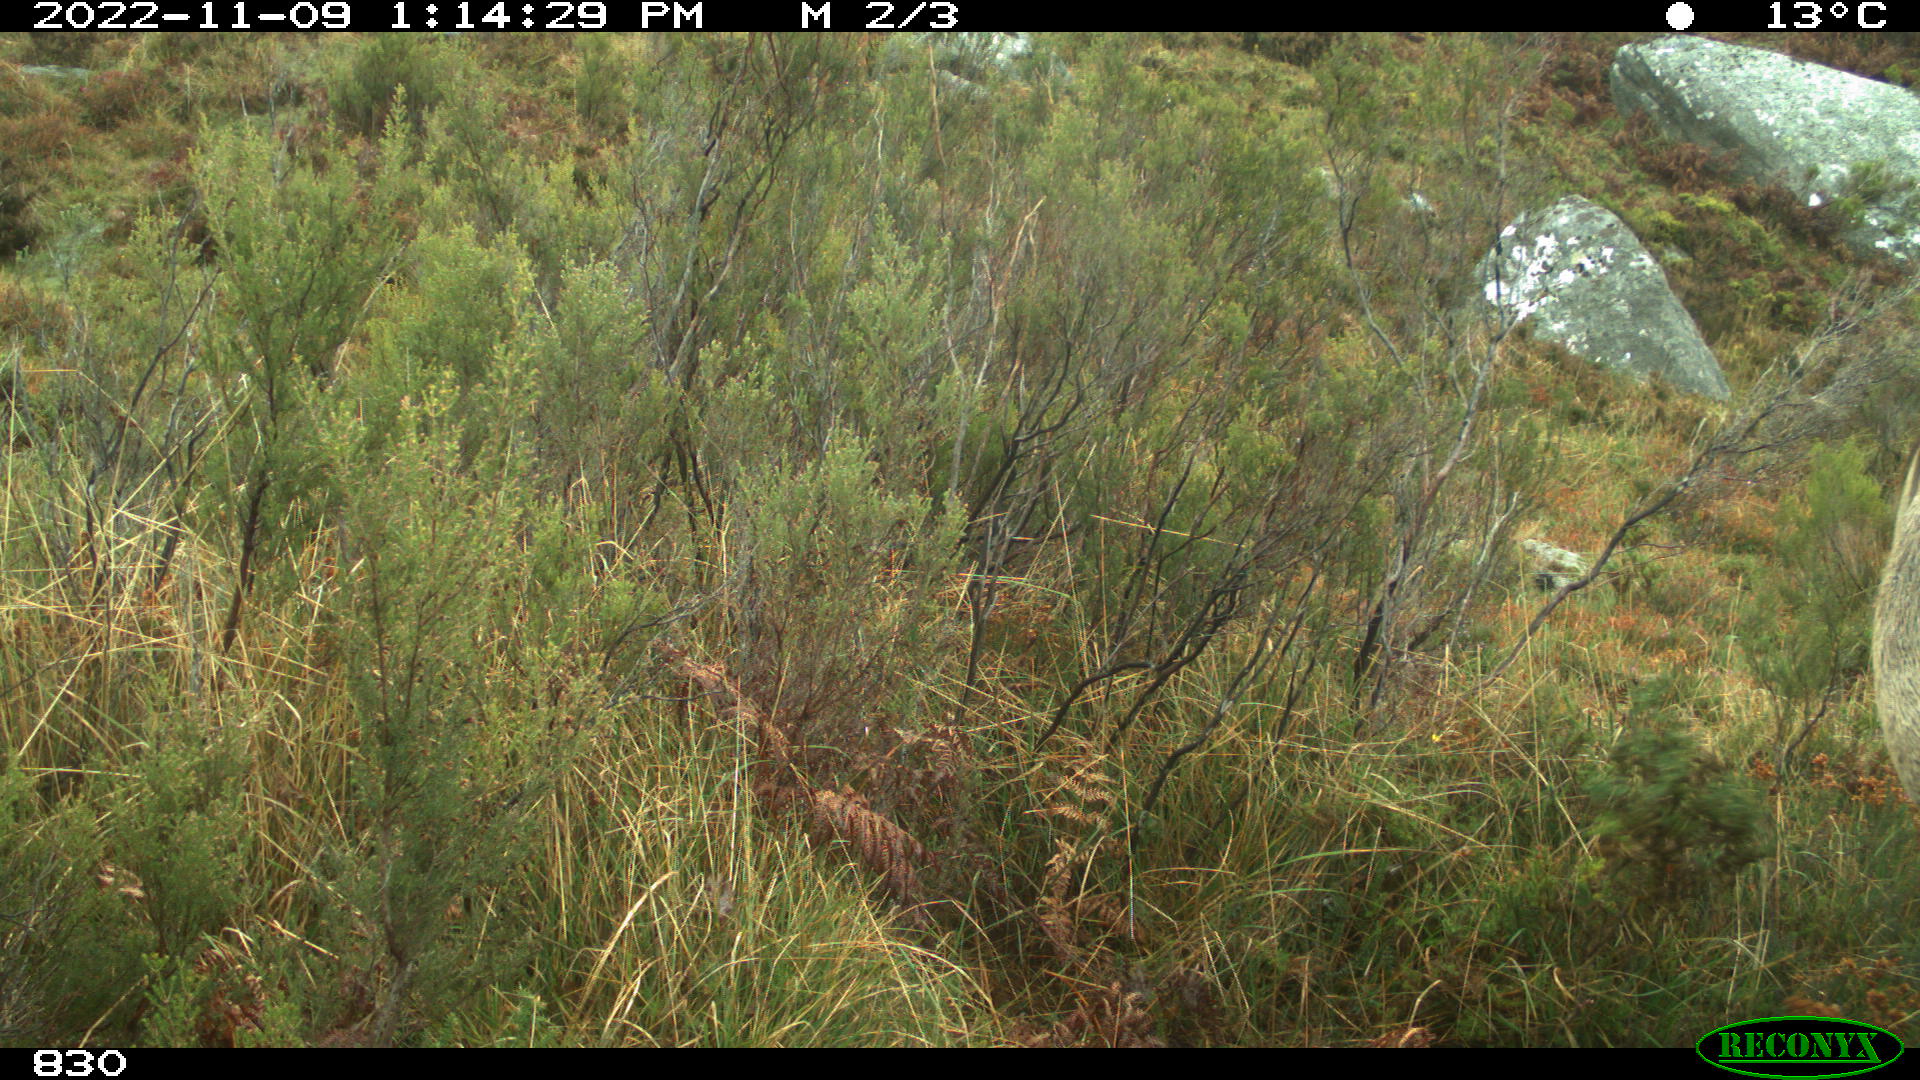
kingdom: Animalia
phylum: Chordata
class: Mammalia
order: Perissodactyla
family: Equidae
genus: Equus
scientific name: Equus caballus
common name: Horse
